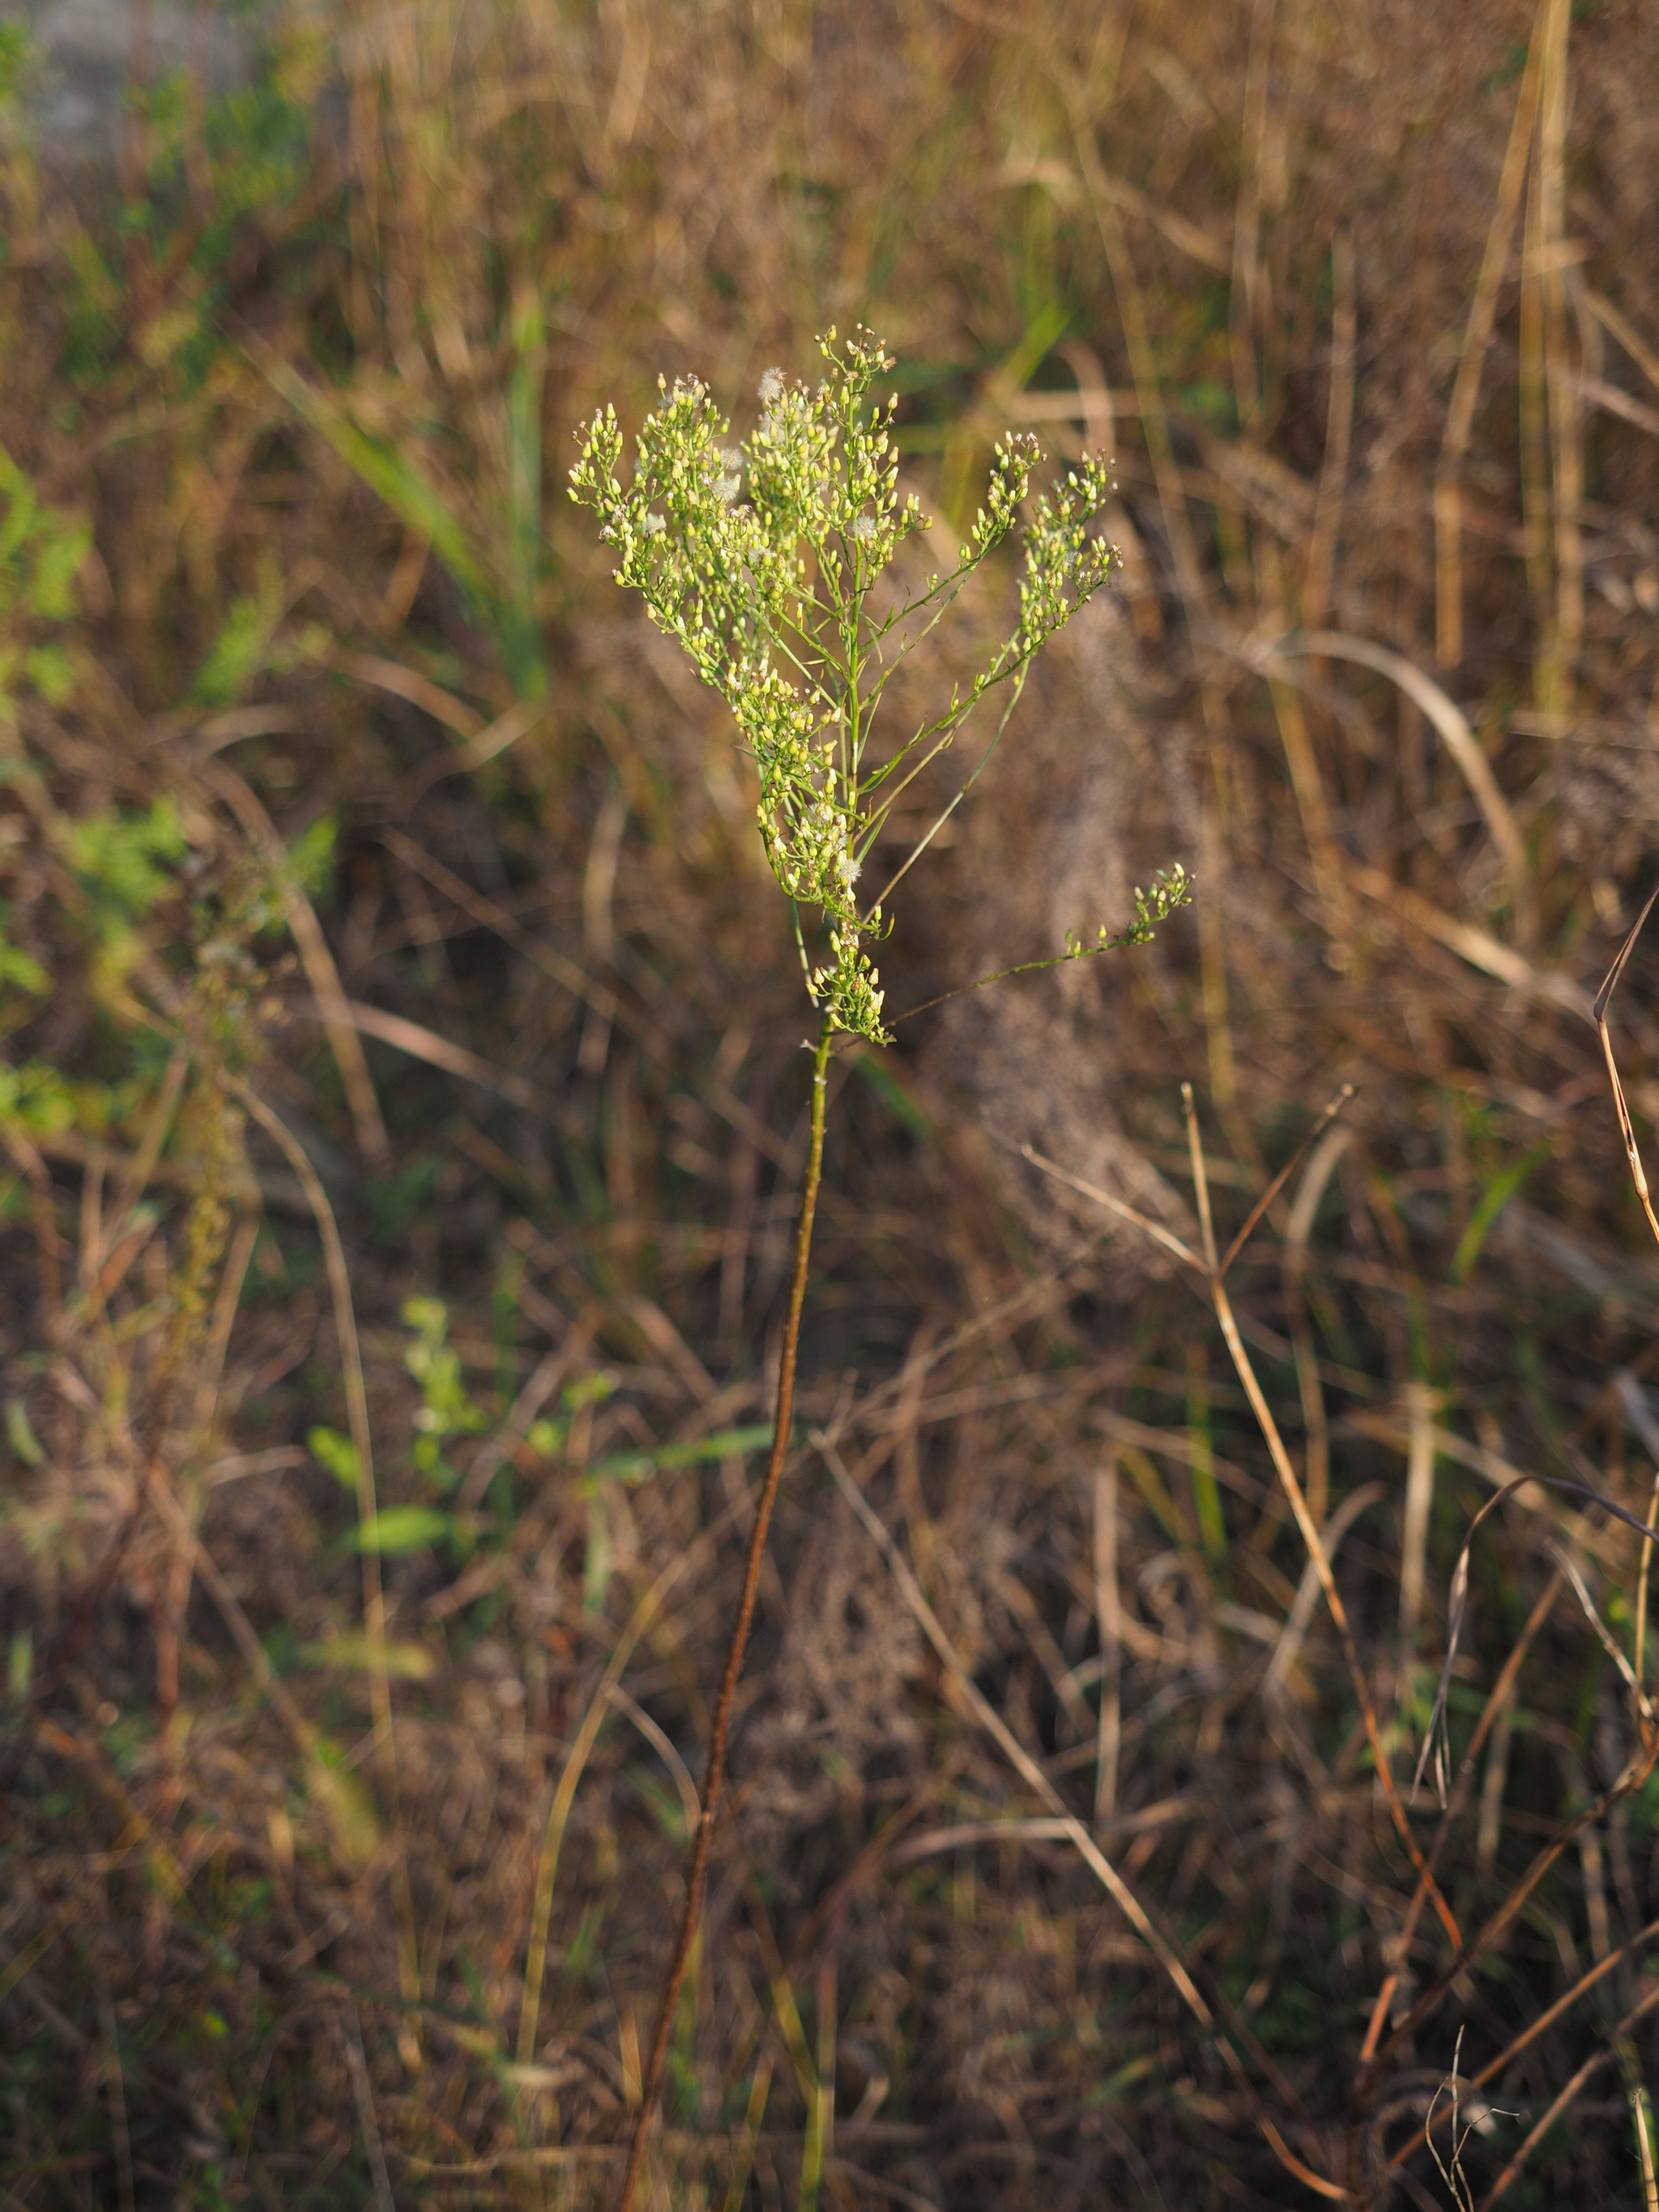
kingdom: Plantae
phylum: Tracheophyta
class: Magnoliopsida
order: Asterales
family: Asteraceae
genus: Erigeron
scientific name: Erigeron canadensis
